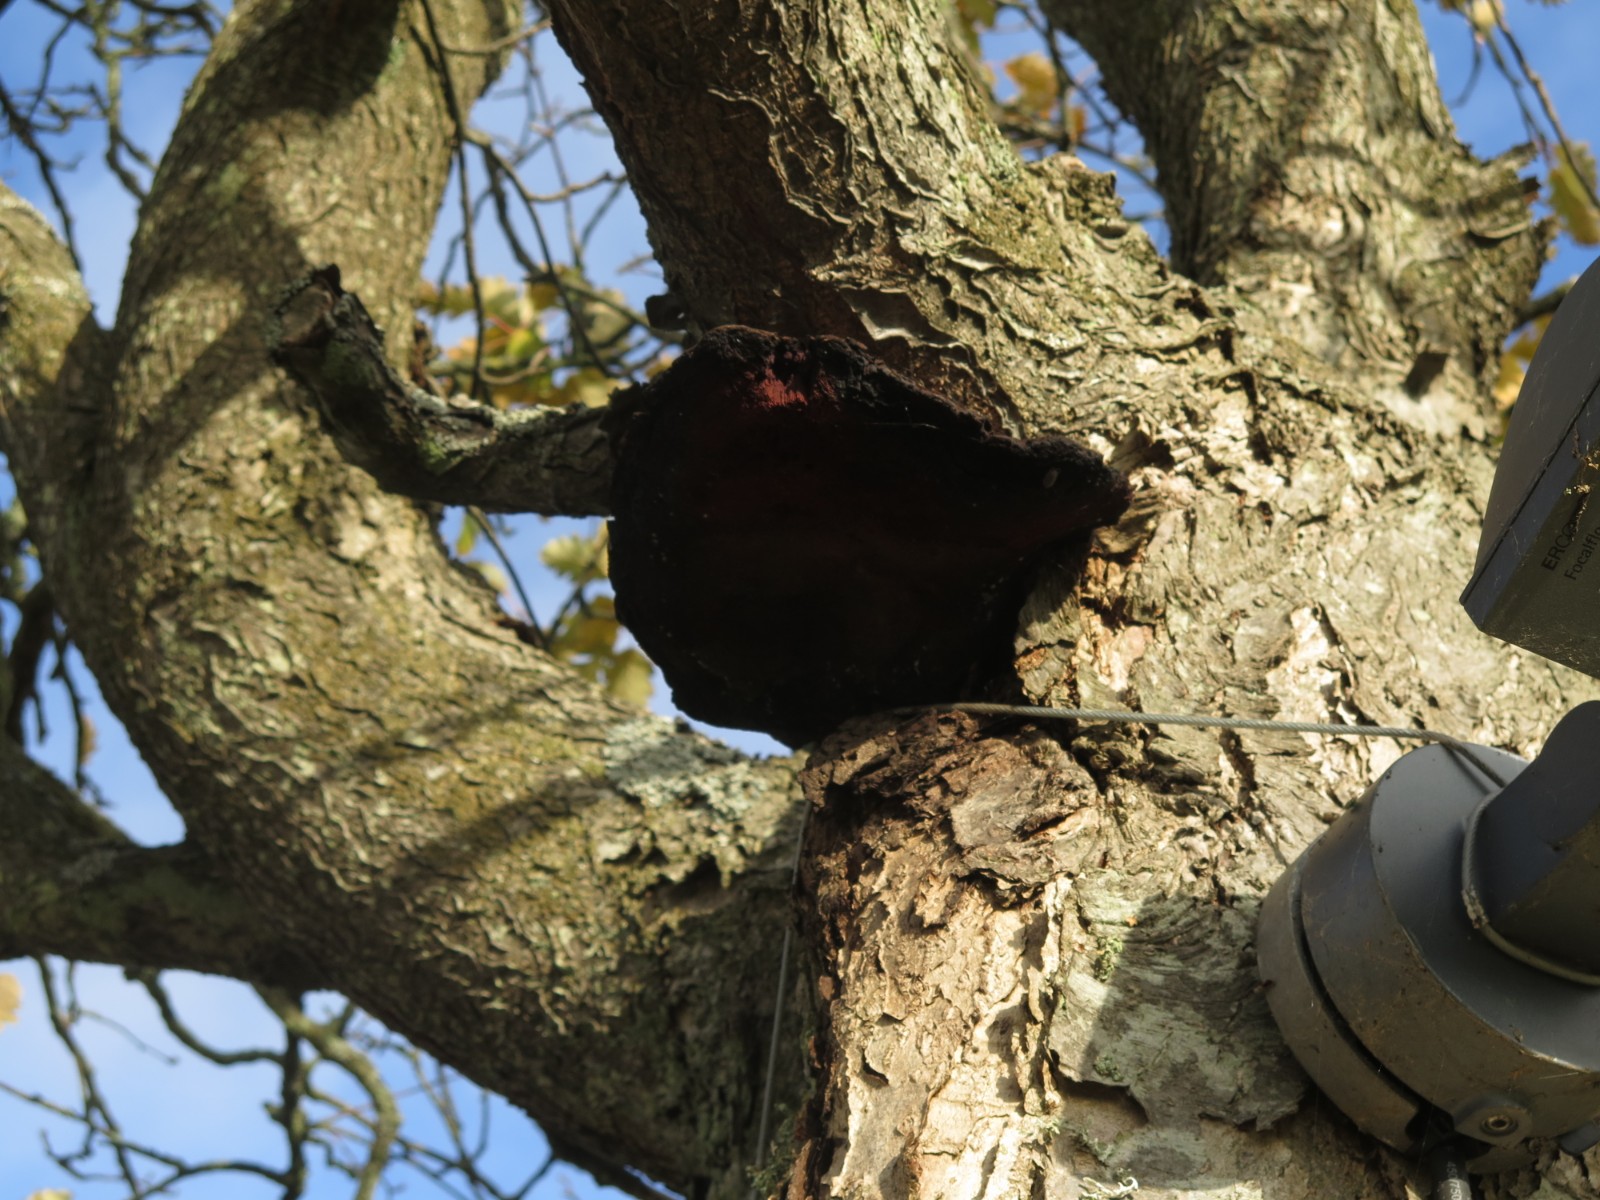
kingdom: Fungi
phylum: Basidiomycota
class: Agaricomycetes
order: Hymenochaetales
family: Hymenochaetaceae
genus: Inonotus
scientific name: Inonotus hispidus
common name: børstehåret spejlporesvamp
